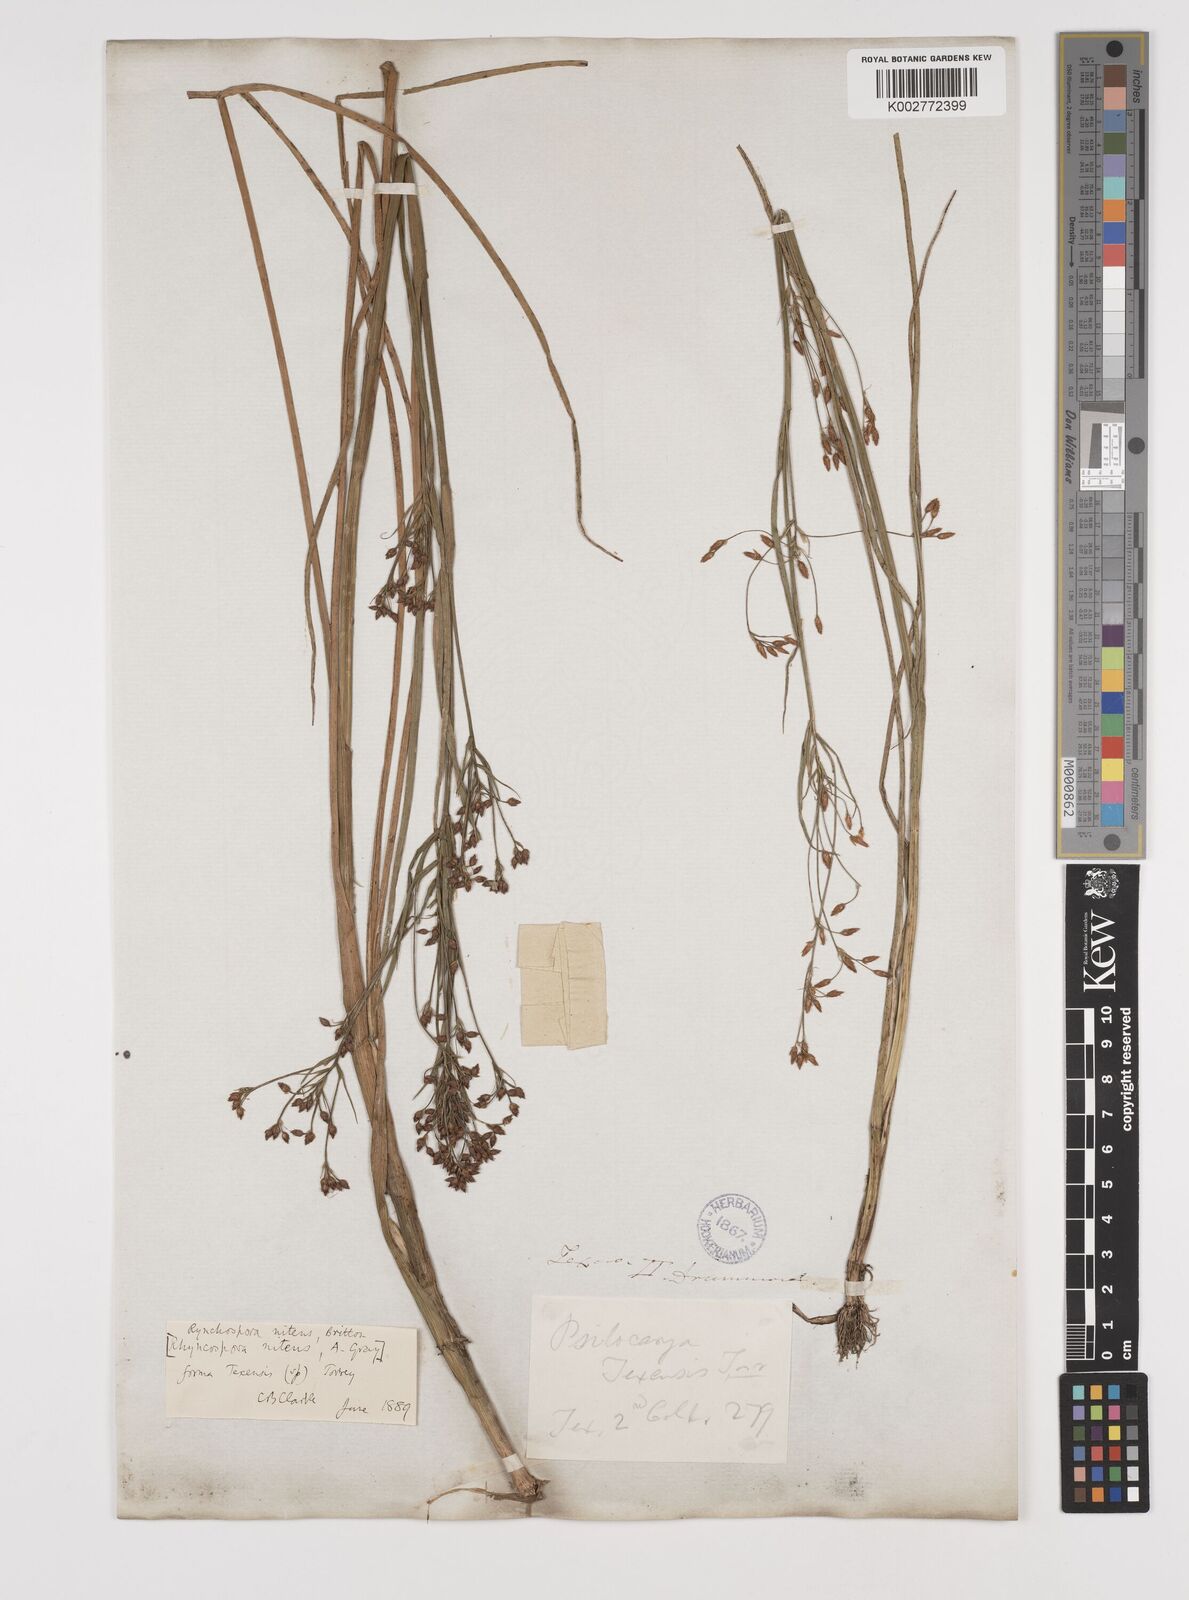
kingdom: Plantae
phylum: Tracheophyta
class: Liliopsida
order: Poales
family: Cyperaceae
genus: Rhynchospora
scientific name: Rhynchospora nitens
